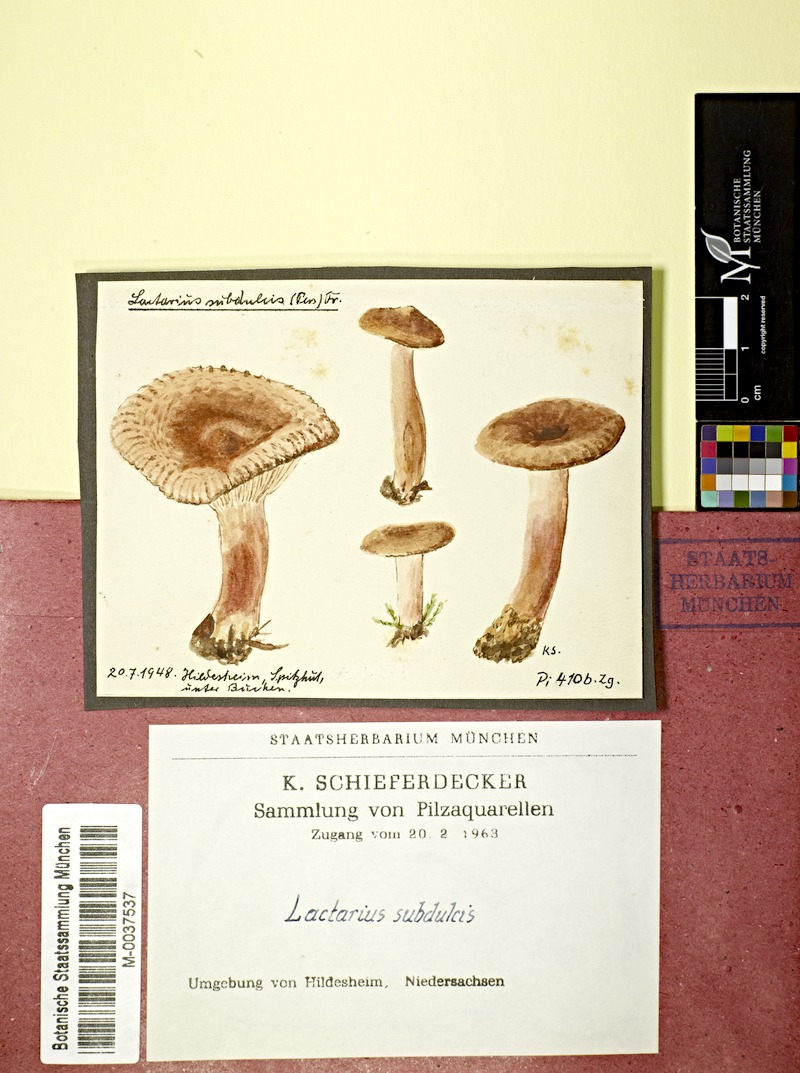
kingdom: Fungi
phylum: Basidiomycota
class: Agaricomycetes
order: Russulales
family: Russulaceae
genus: Lactarius
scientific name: Lactarius
